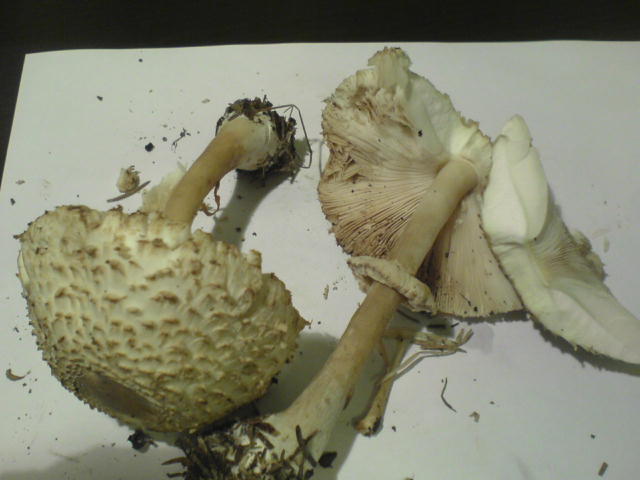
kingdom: Fungi
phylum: Basidiomycota
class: Agaricomycetes
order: Agaricales
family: Agaricaceae
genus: Leucoagaricus
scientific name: Leucoagaricus nympharum
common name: gran-silkehat
